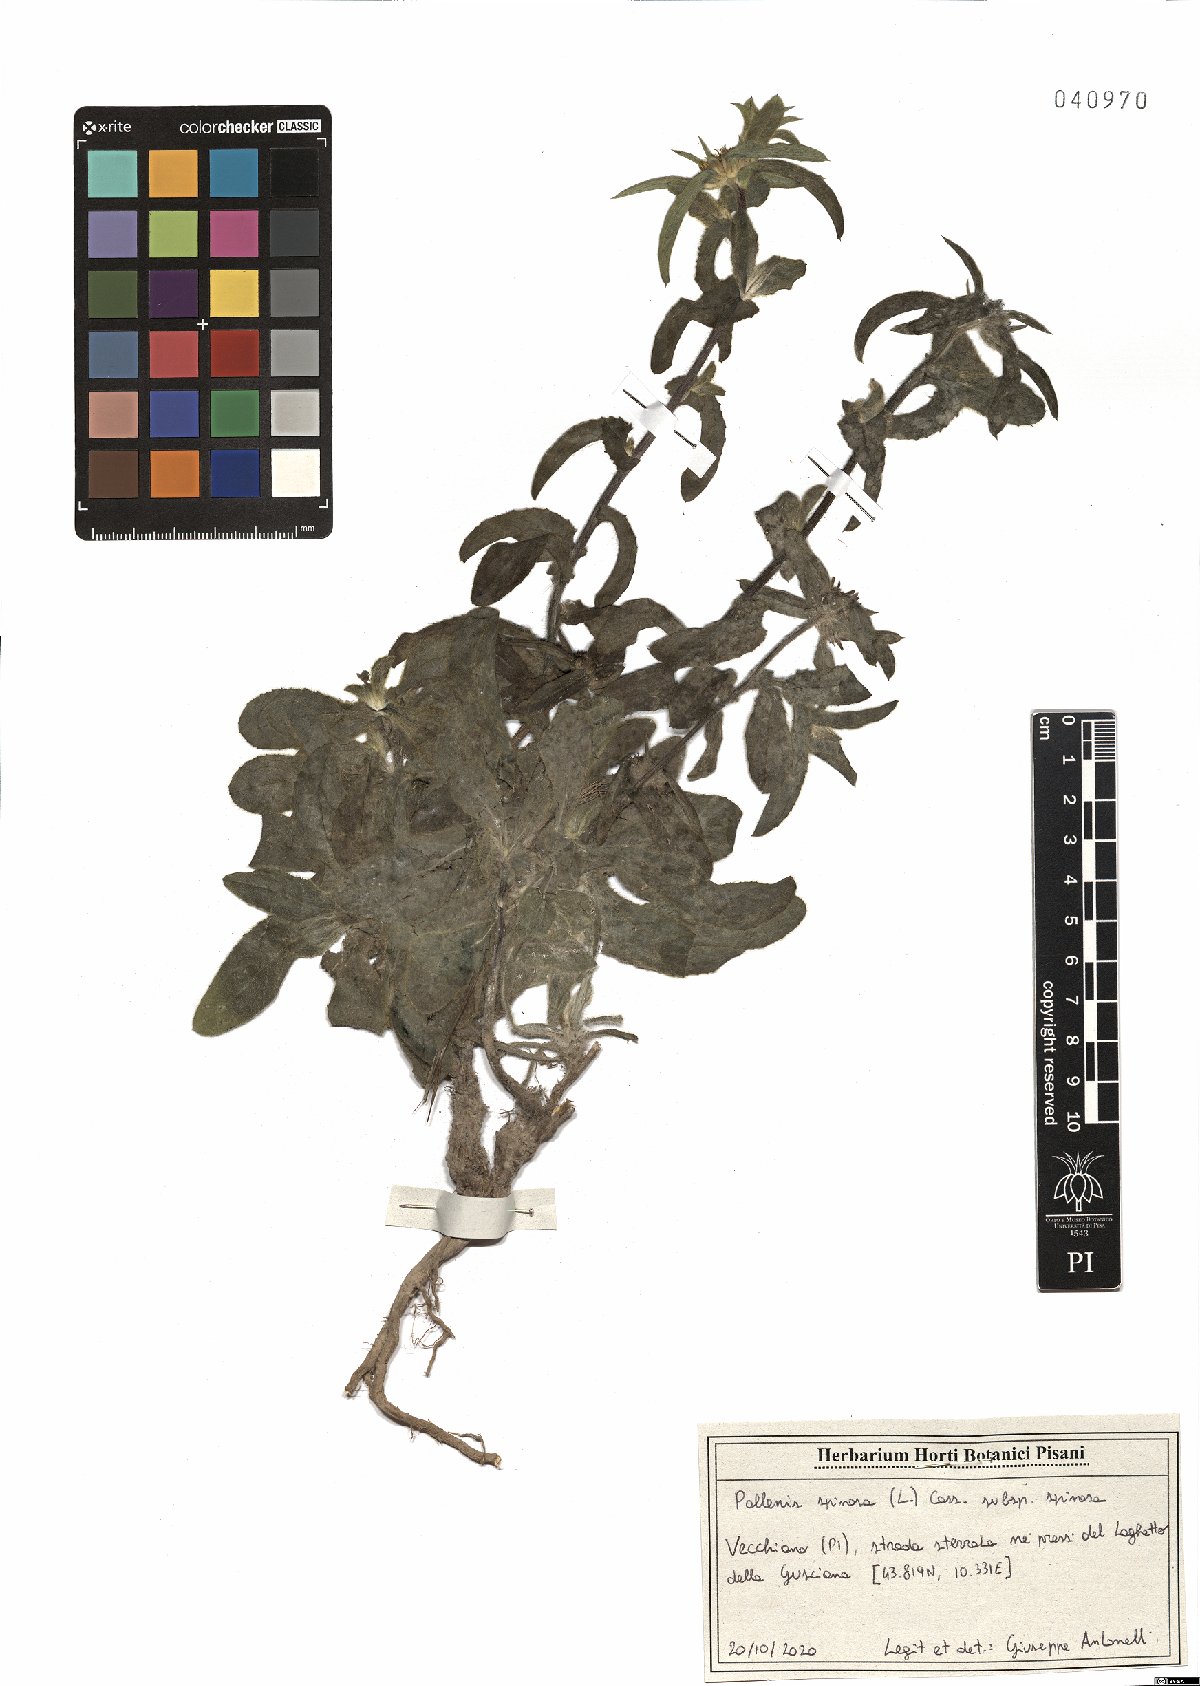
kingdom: Plantae
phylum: Tracheophyta
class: Magnoliopsida
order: Asterales
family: Asteraceae
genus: Pallenis
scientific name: Pallenis spinosa
